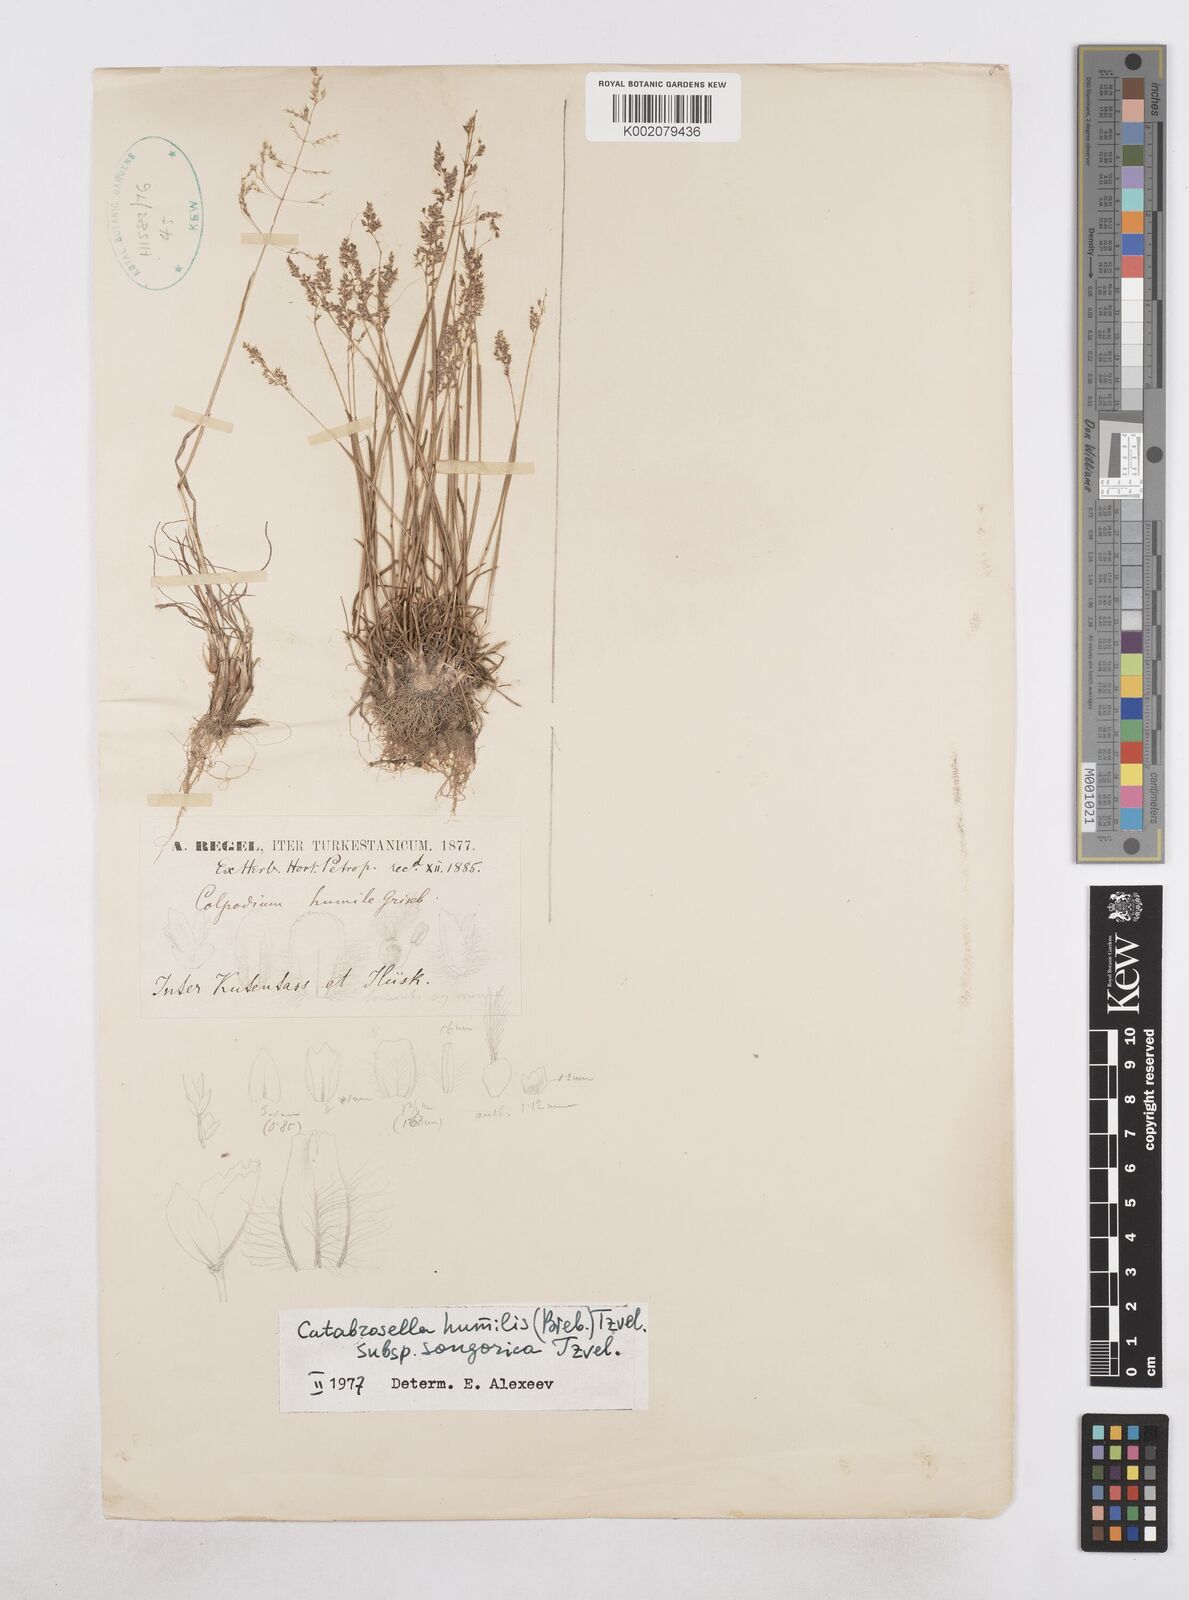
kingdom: Plantae
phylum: Tracheophyta
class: Liliopsida
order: Poales
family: Poaceae
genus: Catabrosella
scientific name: Catabrosella humilis
